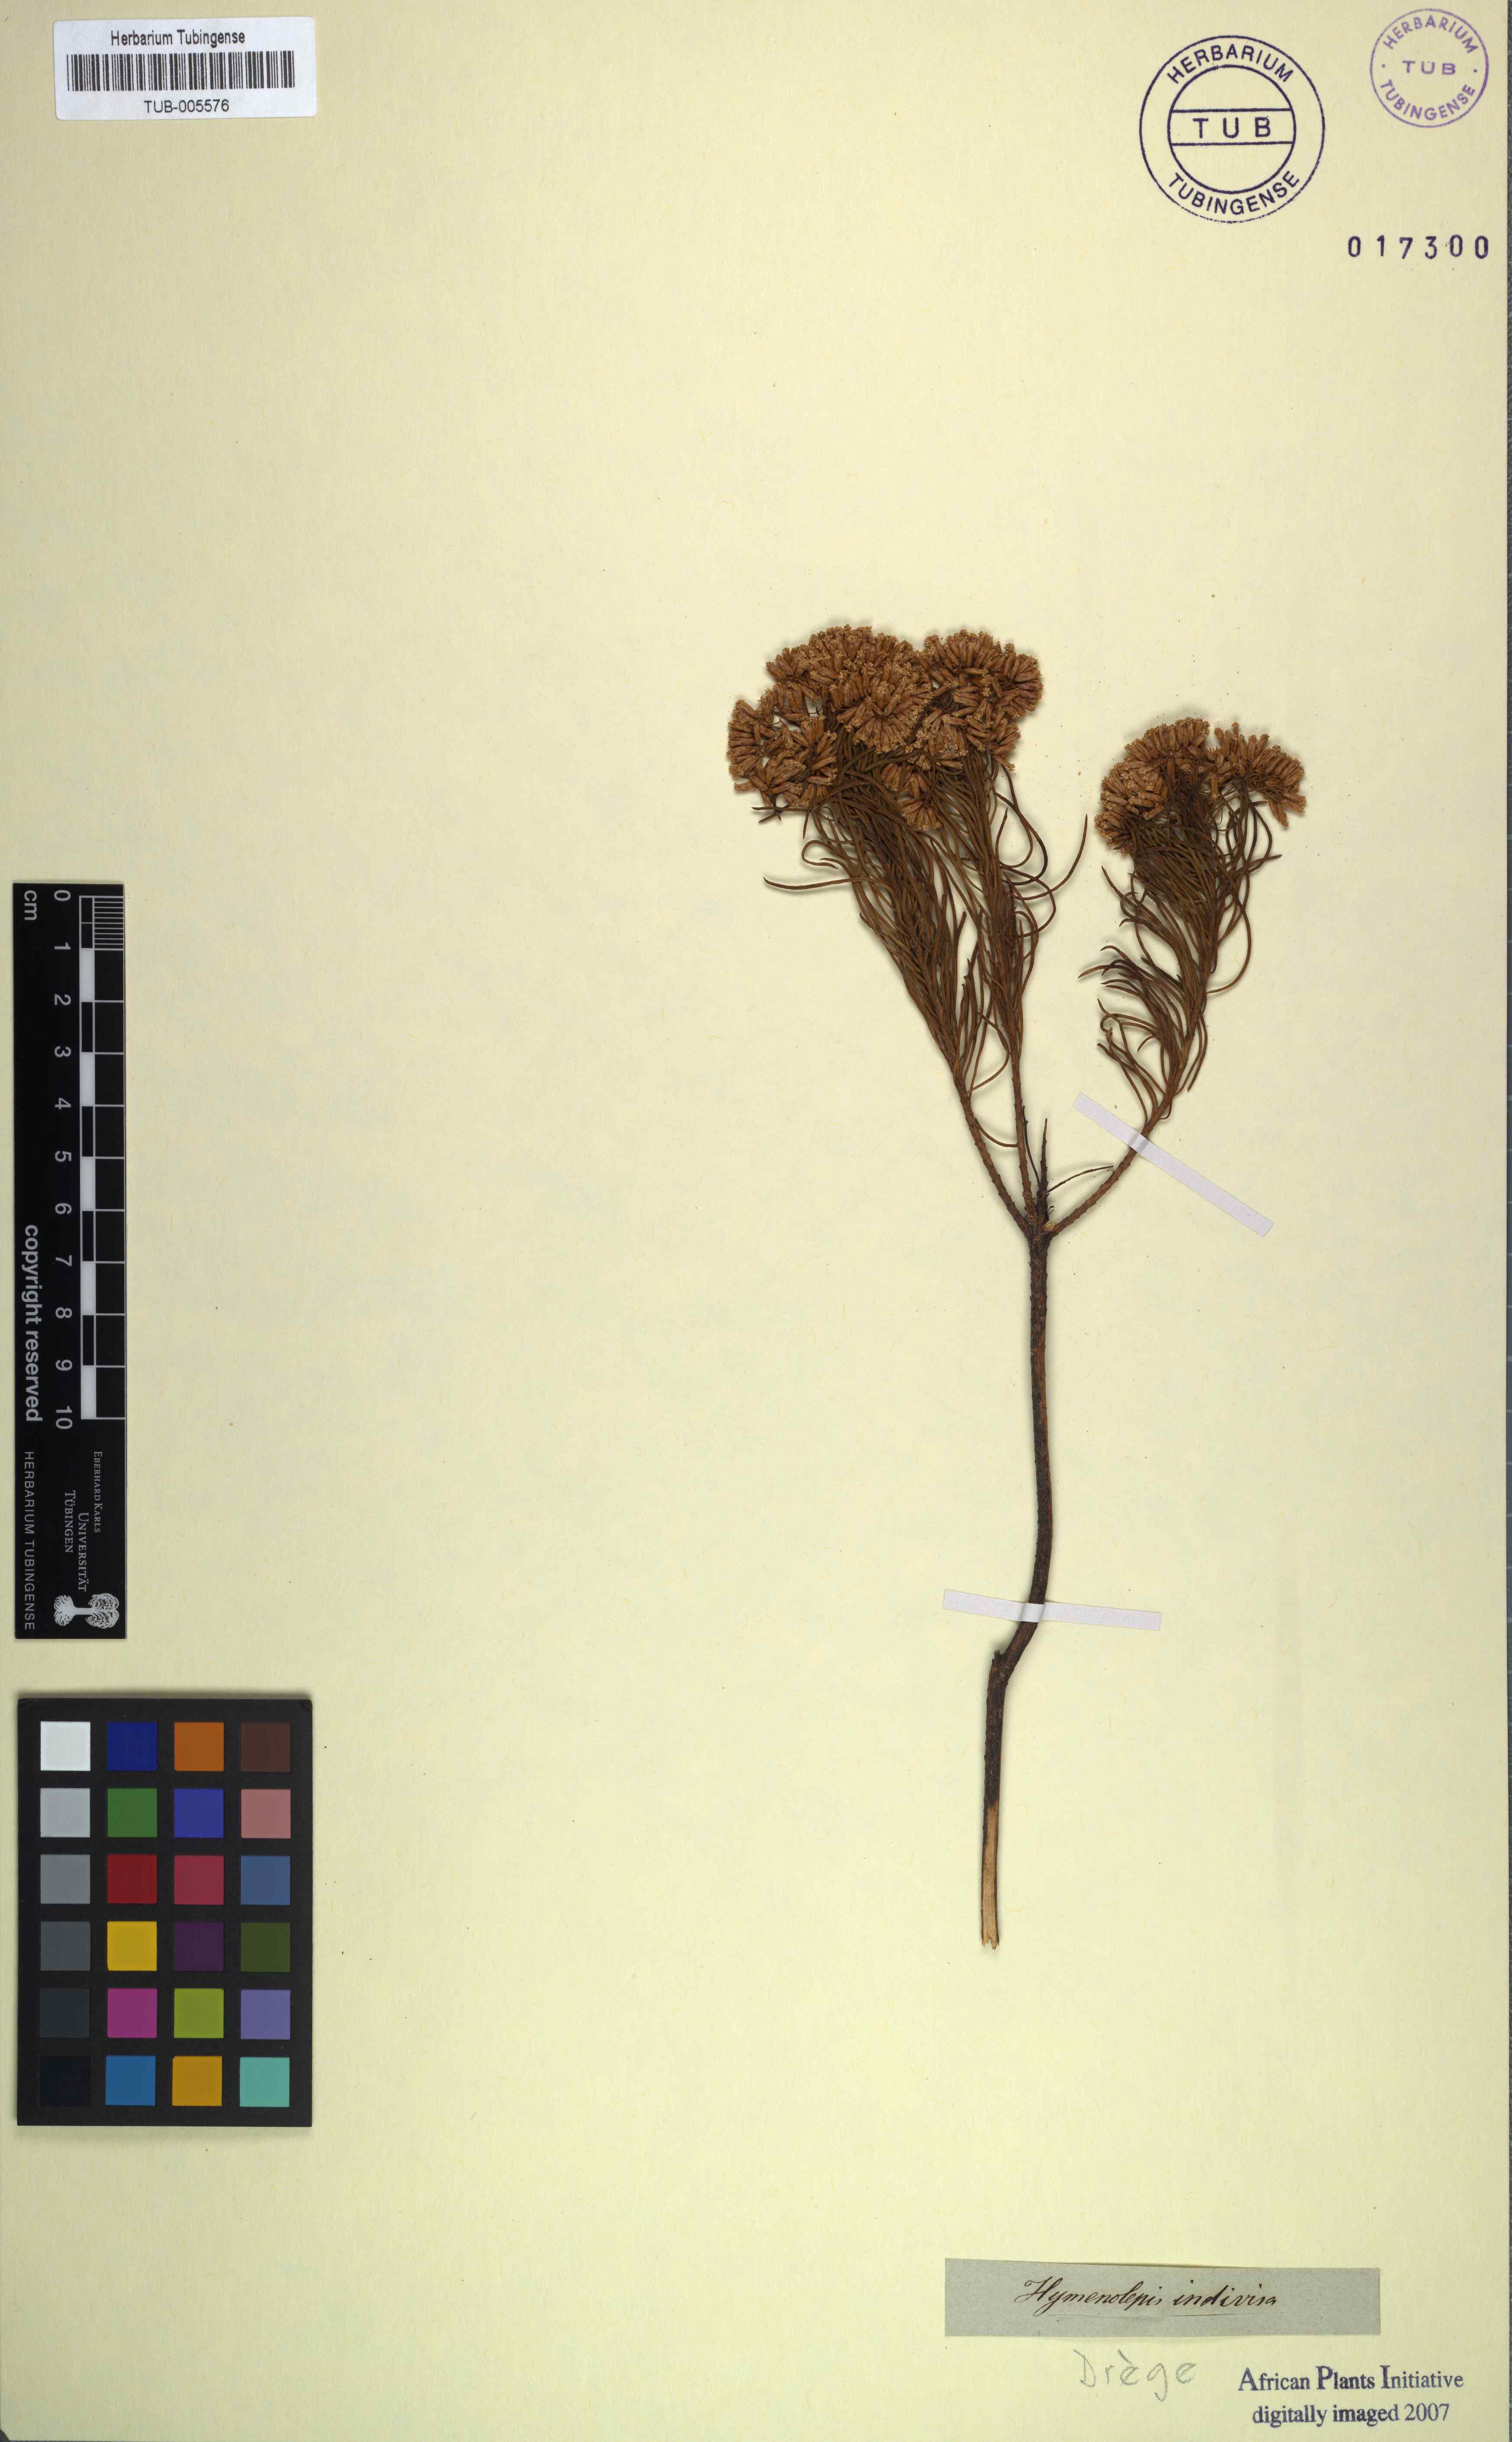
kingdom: Plantae
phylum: Tracheophyta
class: Magnoliopsida
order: Asterales
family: Asteraceae
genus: Hymenolepis
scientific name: Hymenolepis indivisa
